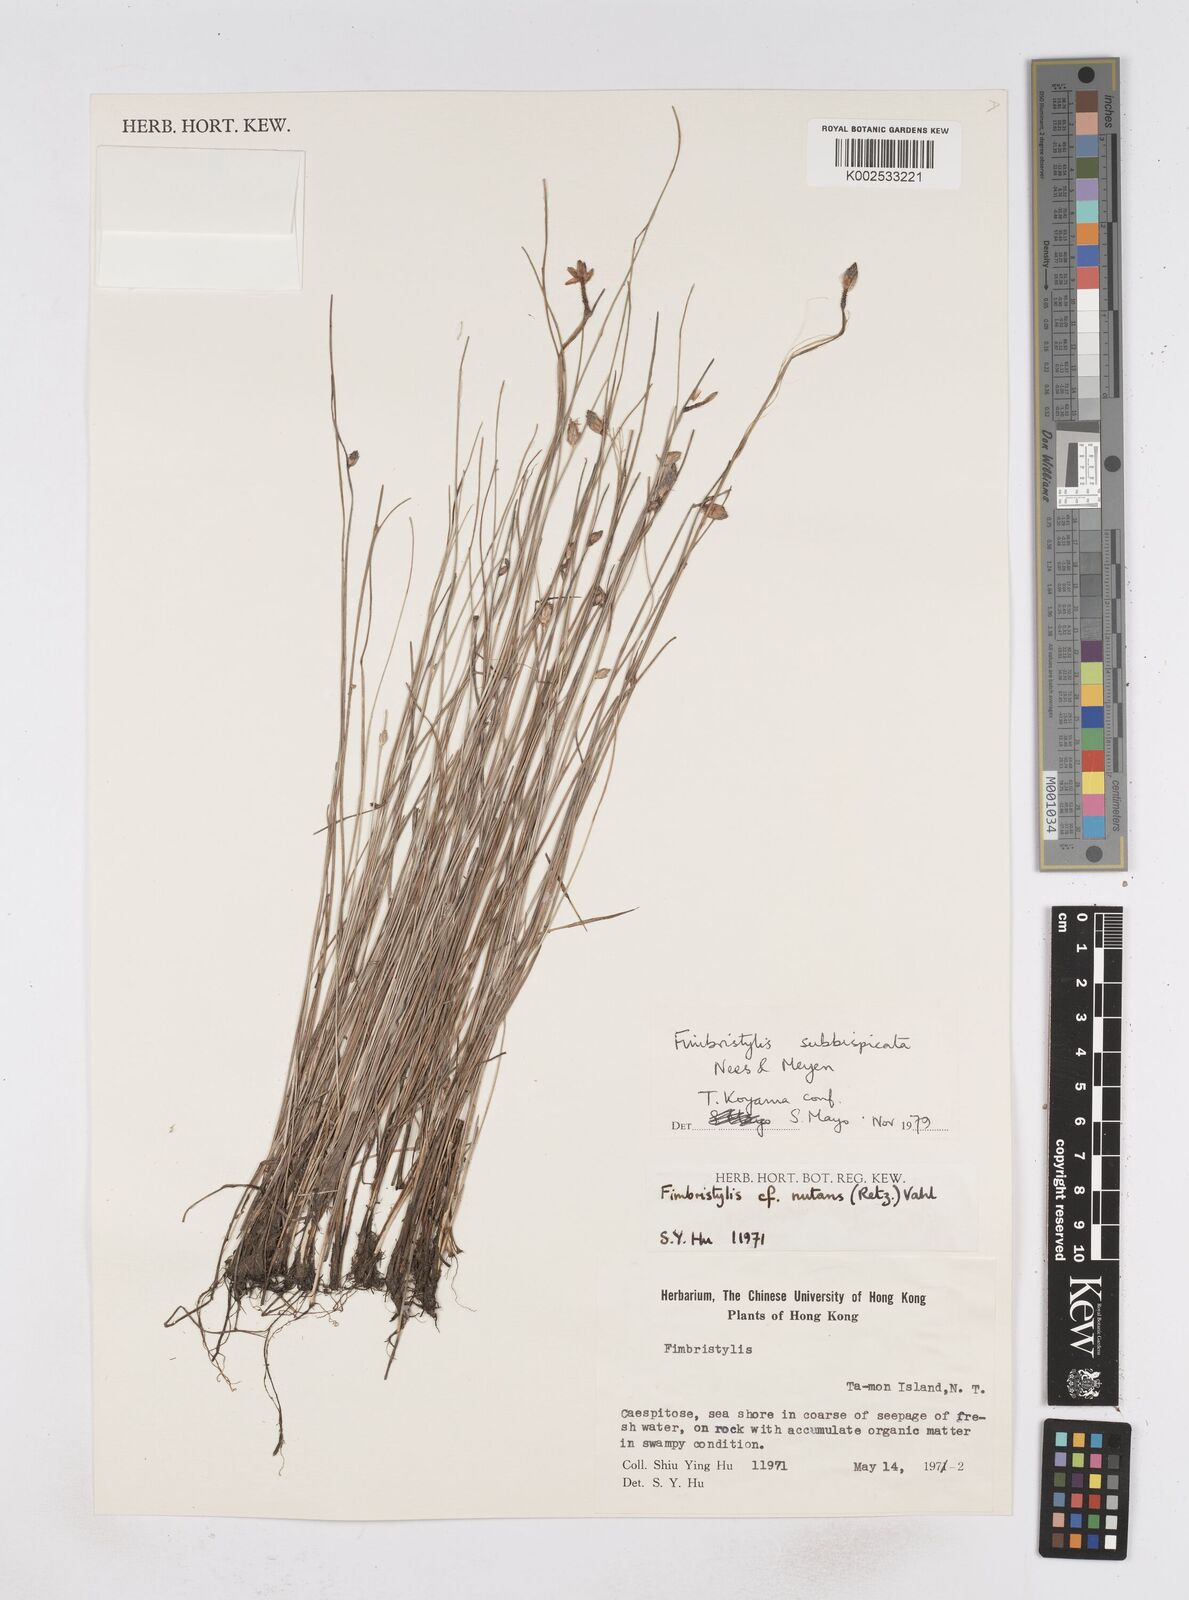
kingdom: Plantae
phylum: Tracheophyta
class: Liliopsida
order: Poales
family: Cyperaceae
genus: Fimbristylis
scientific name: Fimbristylis tristachya
